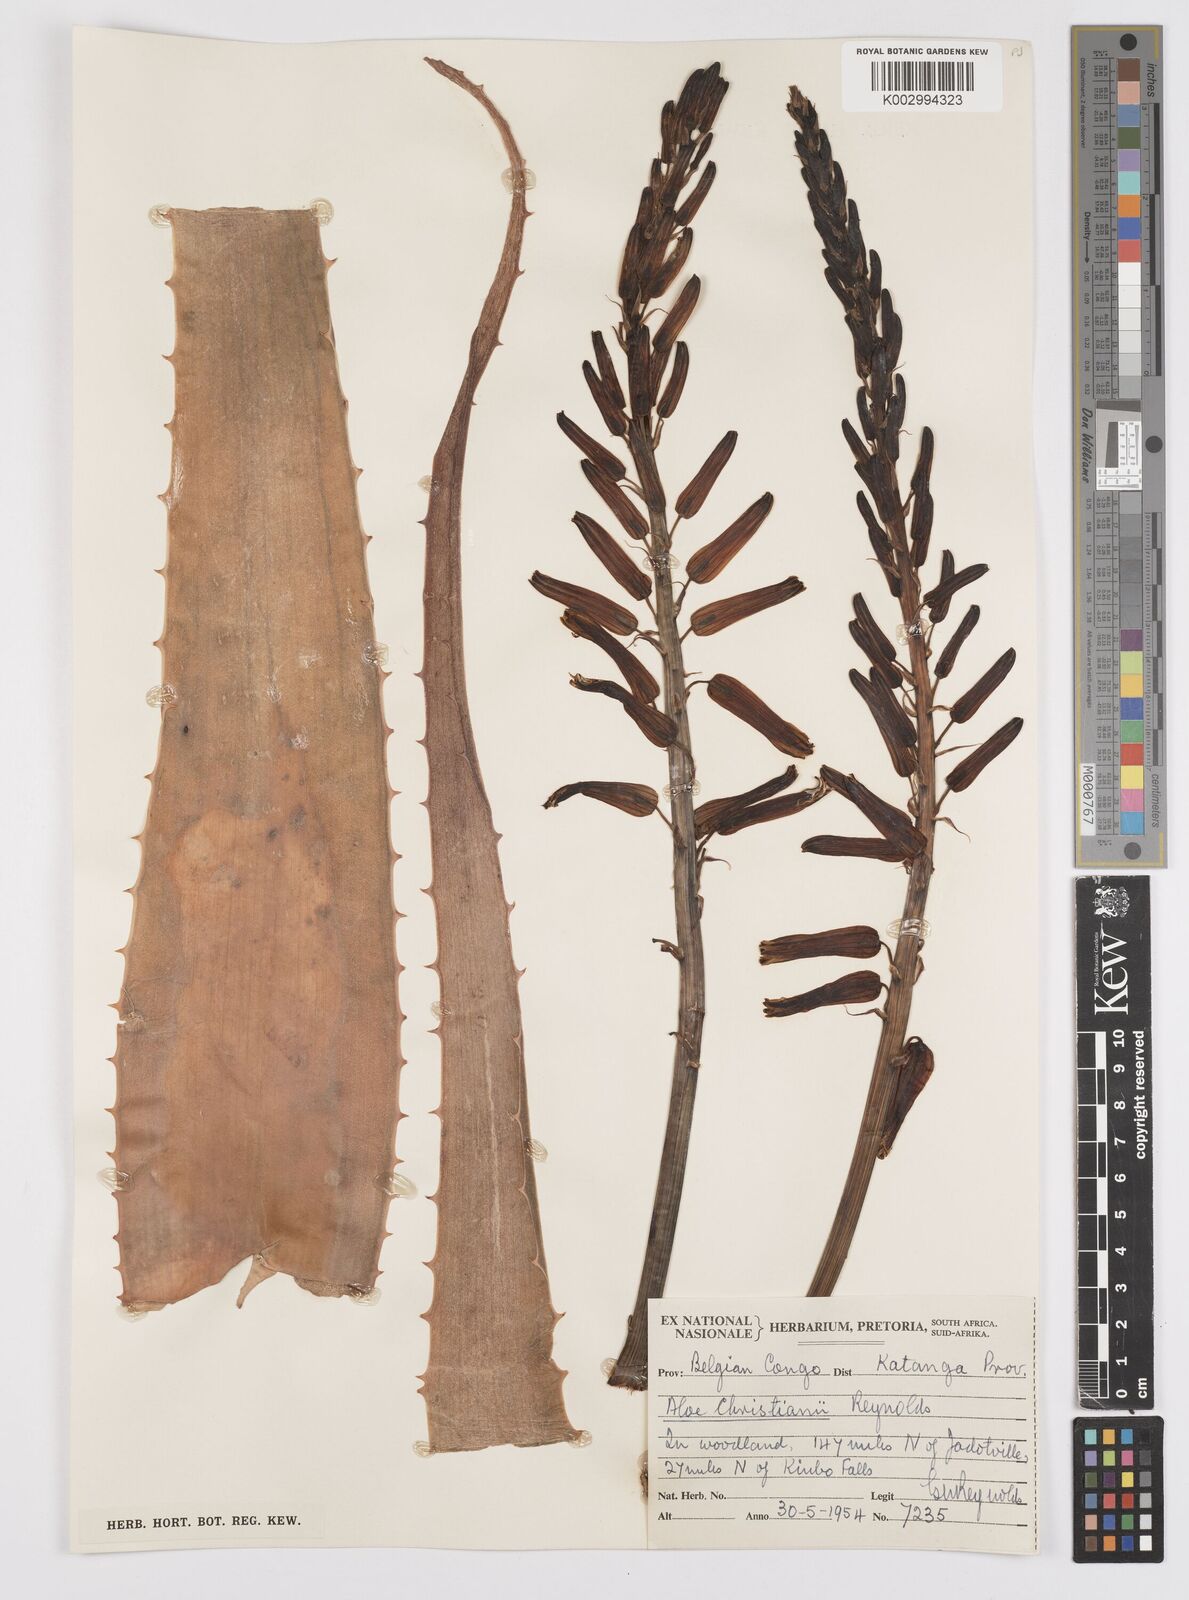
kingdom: Plantae
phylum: Tracheophyta
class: Liliopsida
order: Asparagales
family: Asphodelaceae
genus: Aloe
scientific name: Aloe christianii
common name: Basil christian's aloe
